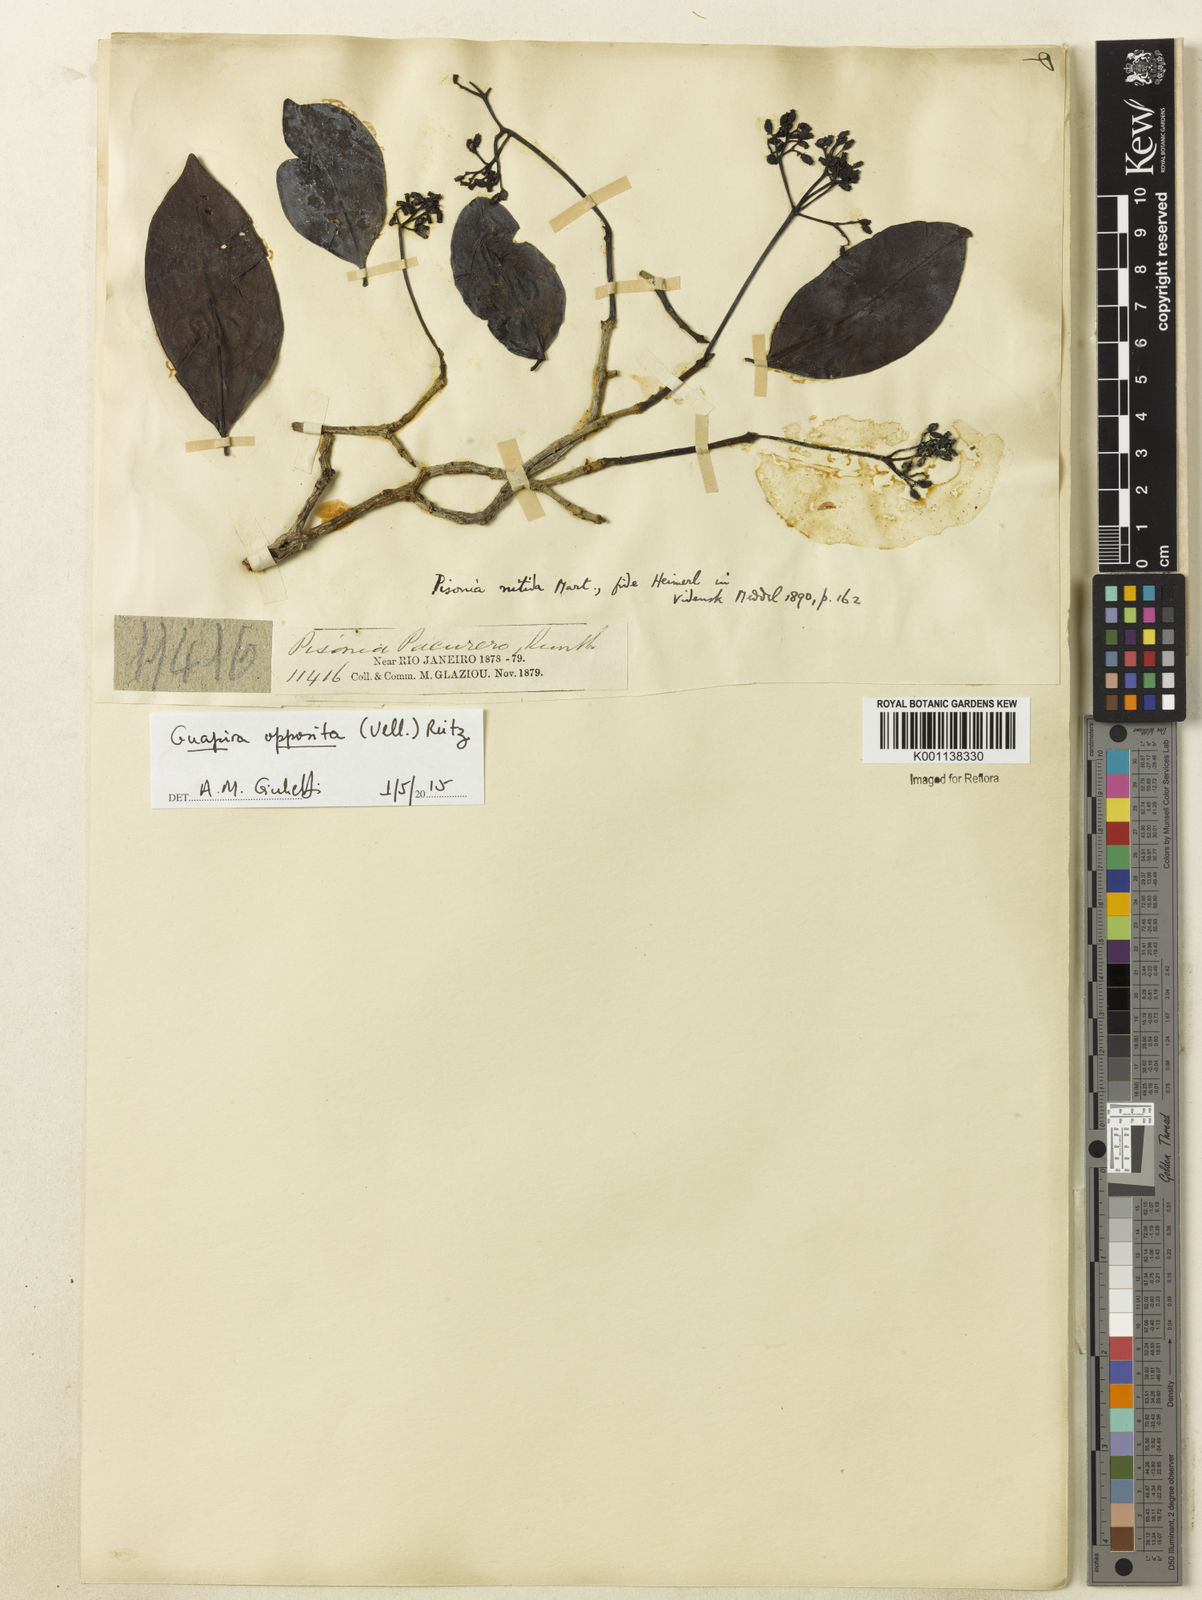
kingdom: Plantae
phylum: Tracheophyta
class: Magnoliopsida
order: Caryophyllales
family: Nyctaginaceae
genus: Guapira
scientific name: Guapira opposita
